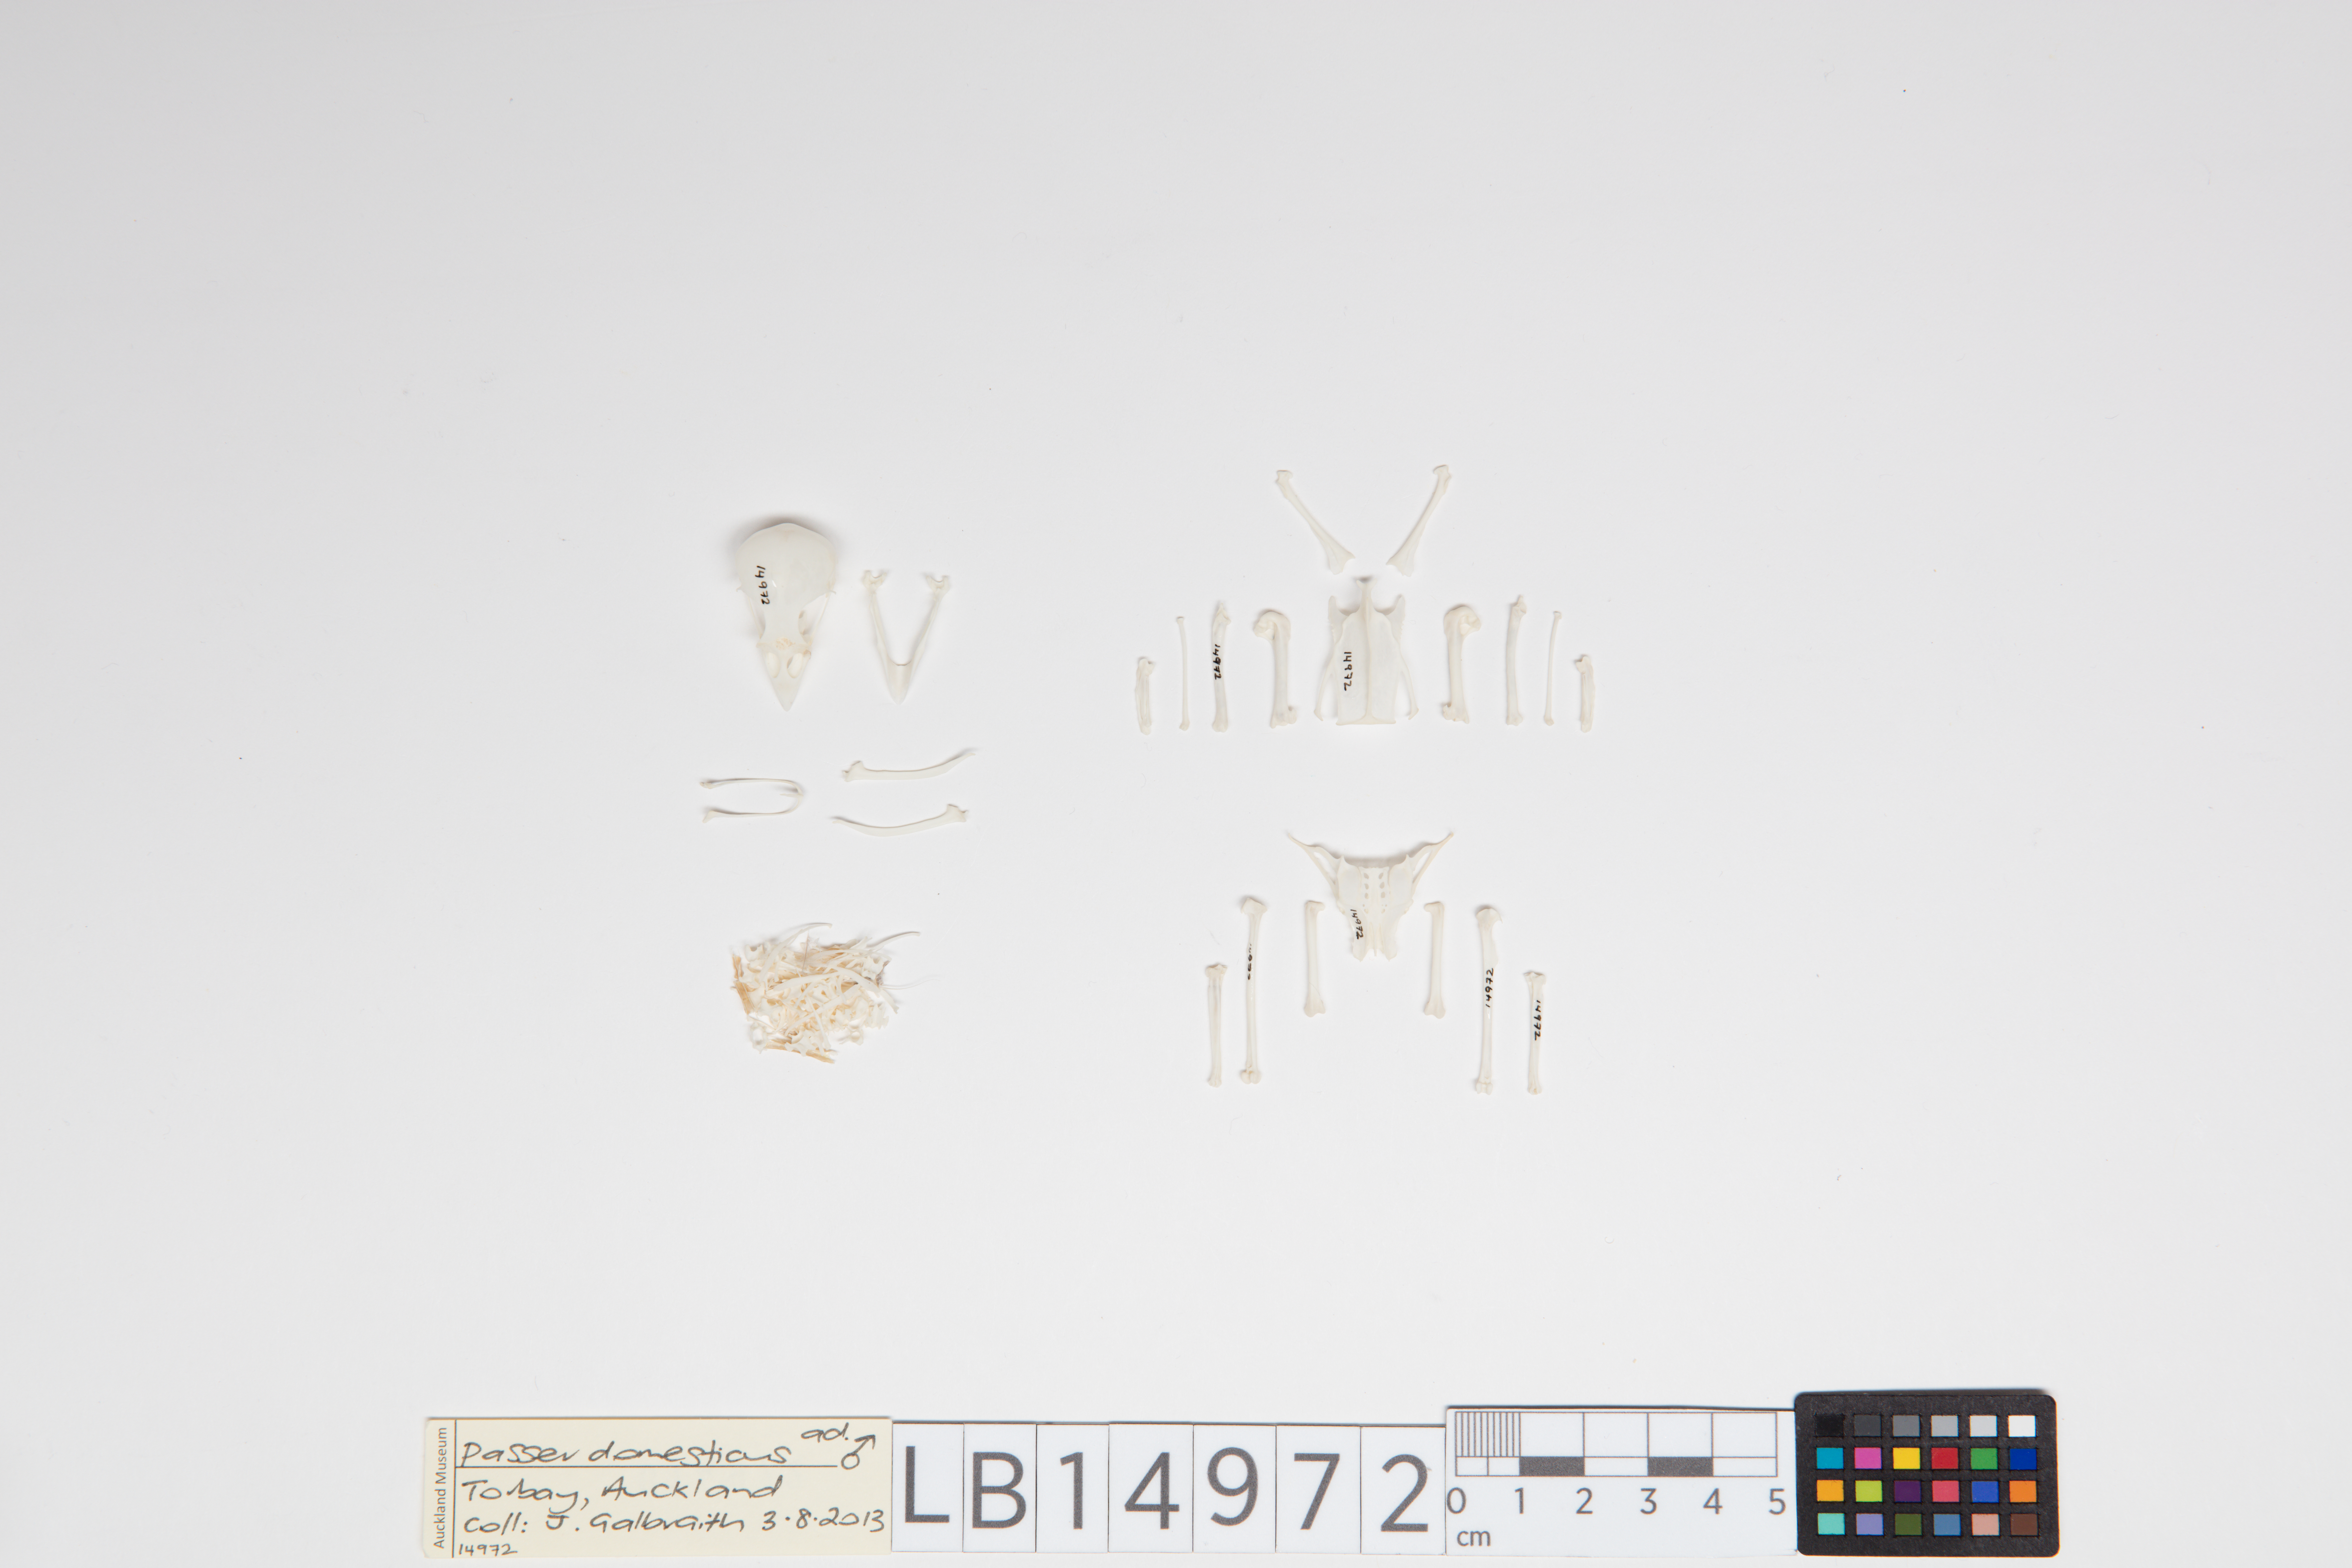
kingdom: Animalia
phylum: Chordata
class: Aves
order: Passeriformes
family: Passeridae
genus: Passer
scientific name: Passer domesticus
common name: House sparrow
